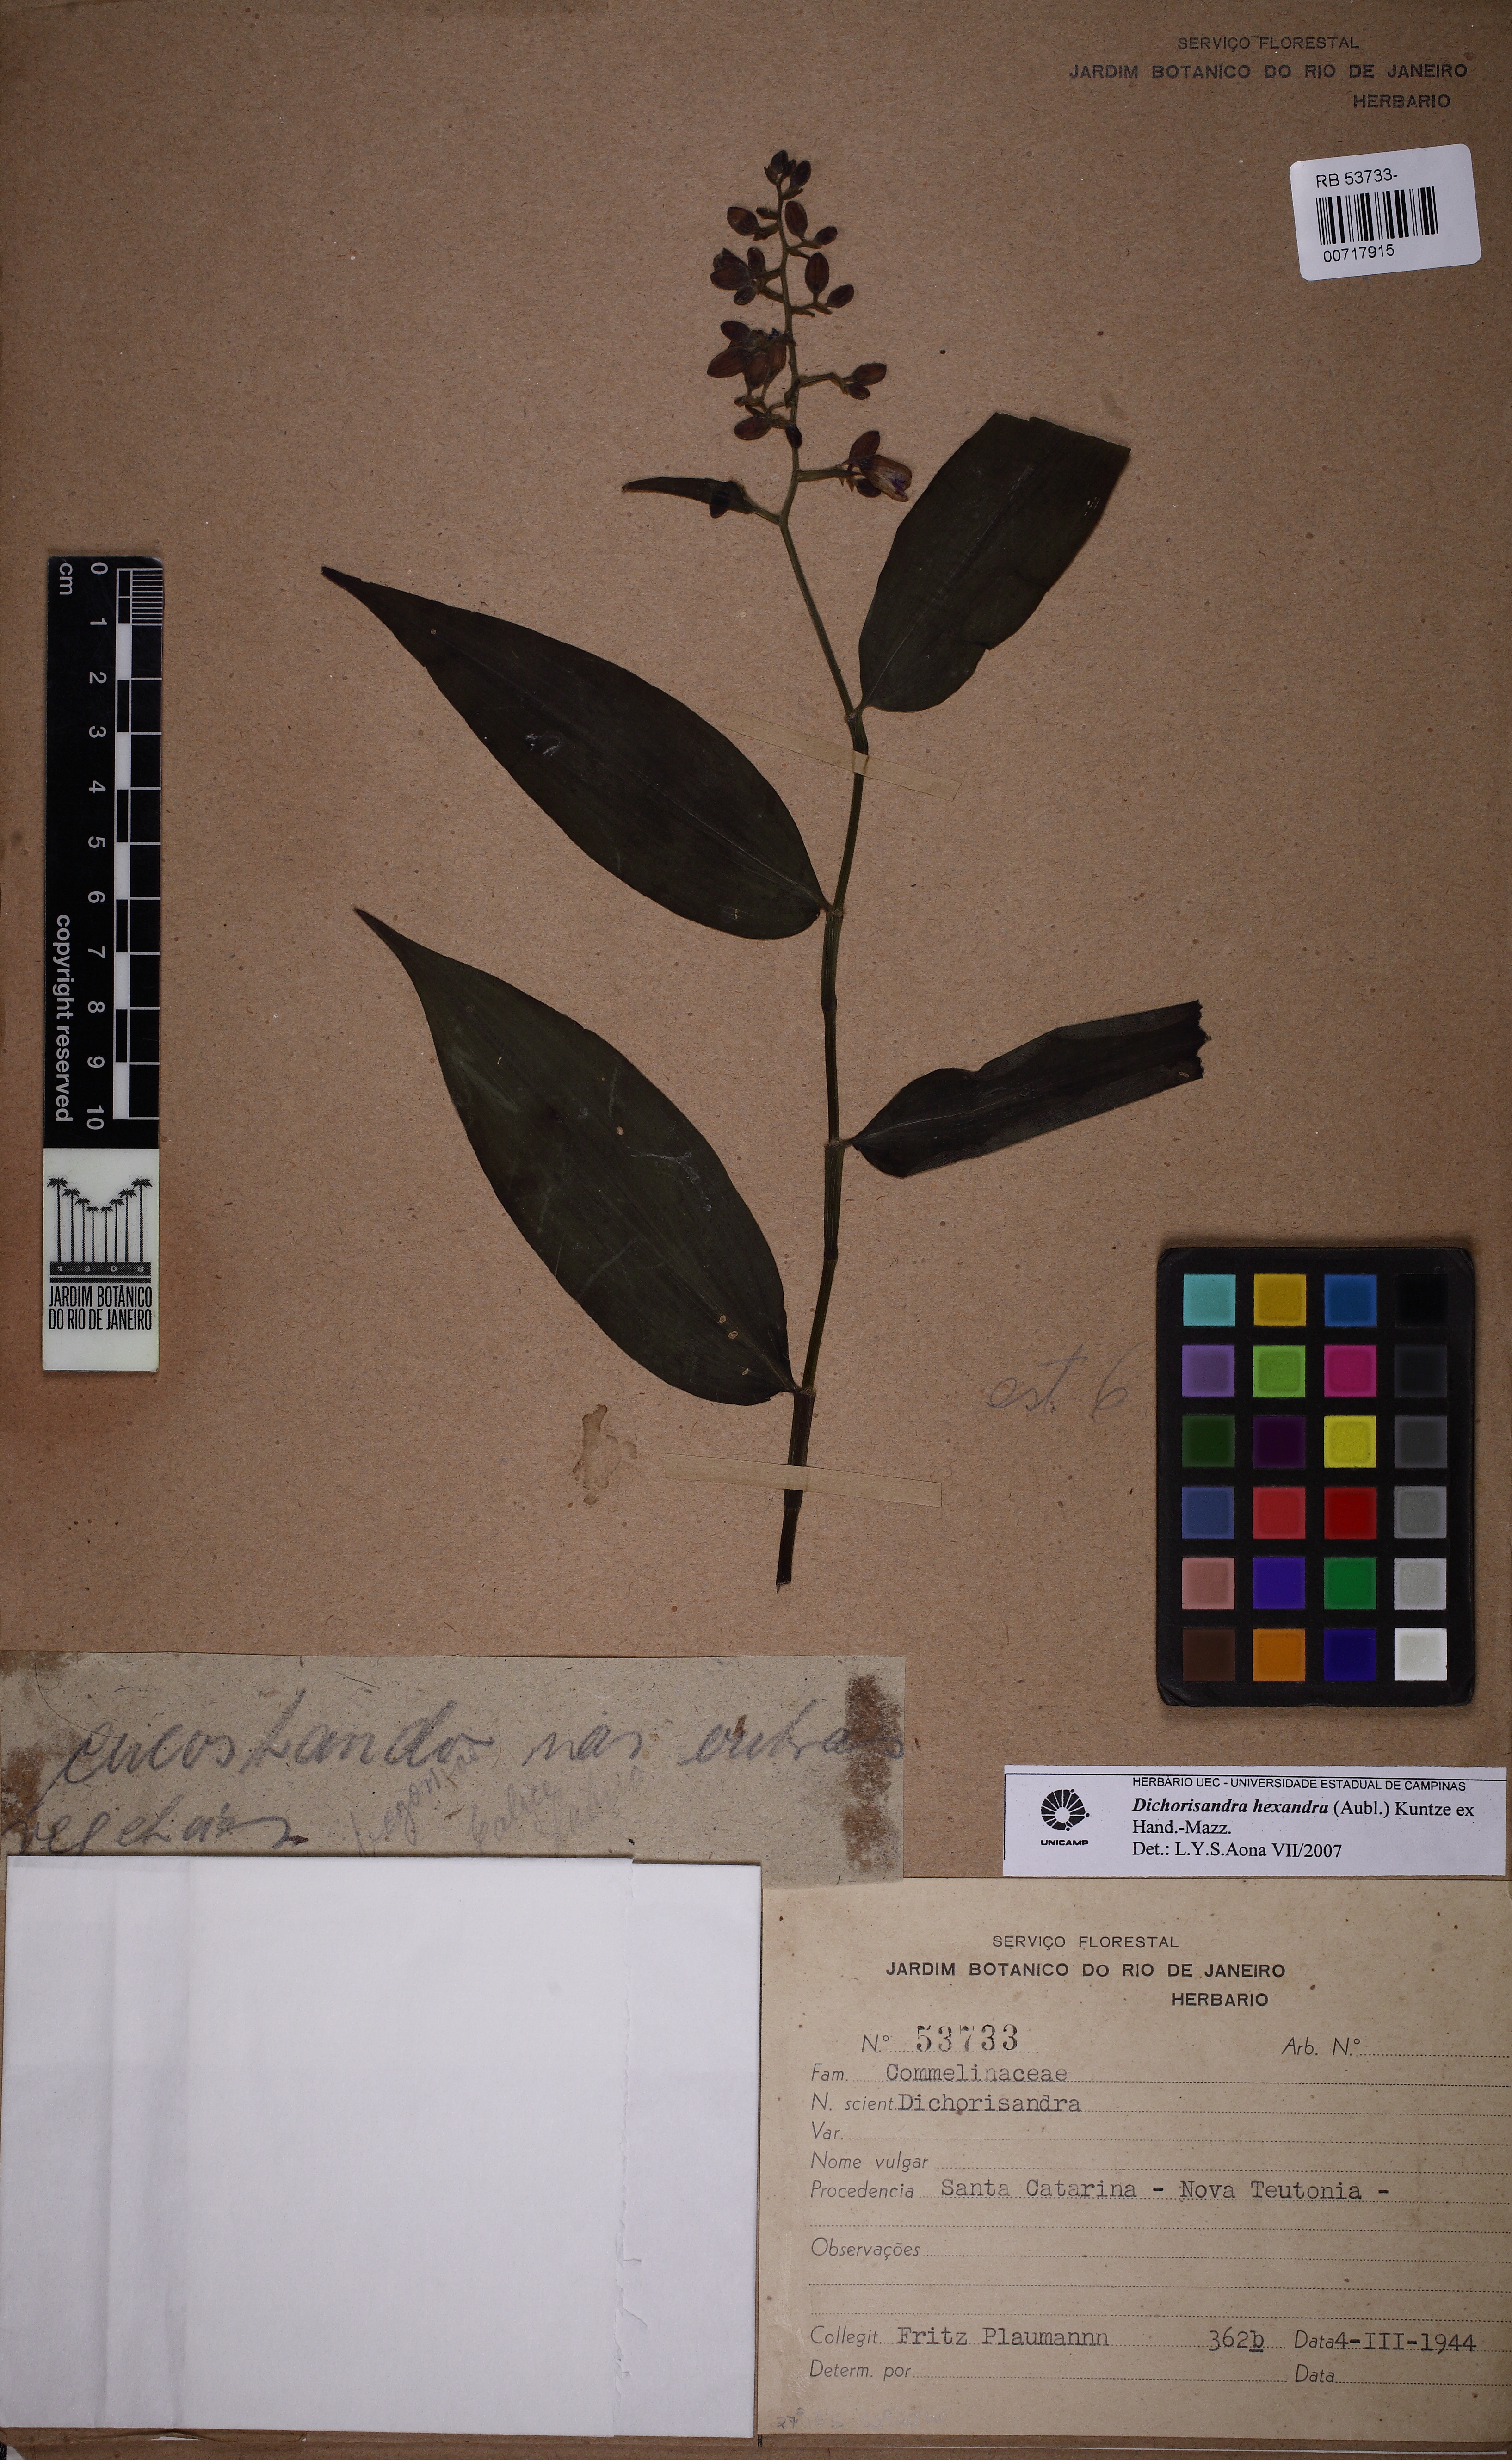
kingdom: Plantae
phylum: Tracheophyta
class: Liliopsida
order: Commelinales
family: Commelinaceae
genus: Dichorisandra
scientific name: Dichorisandra hexandra
